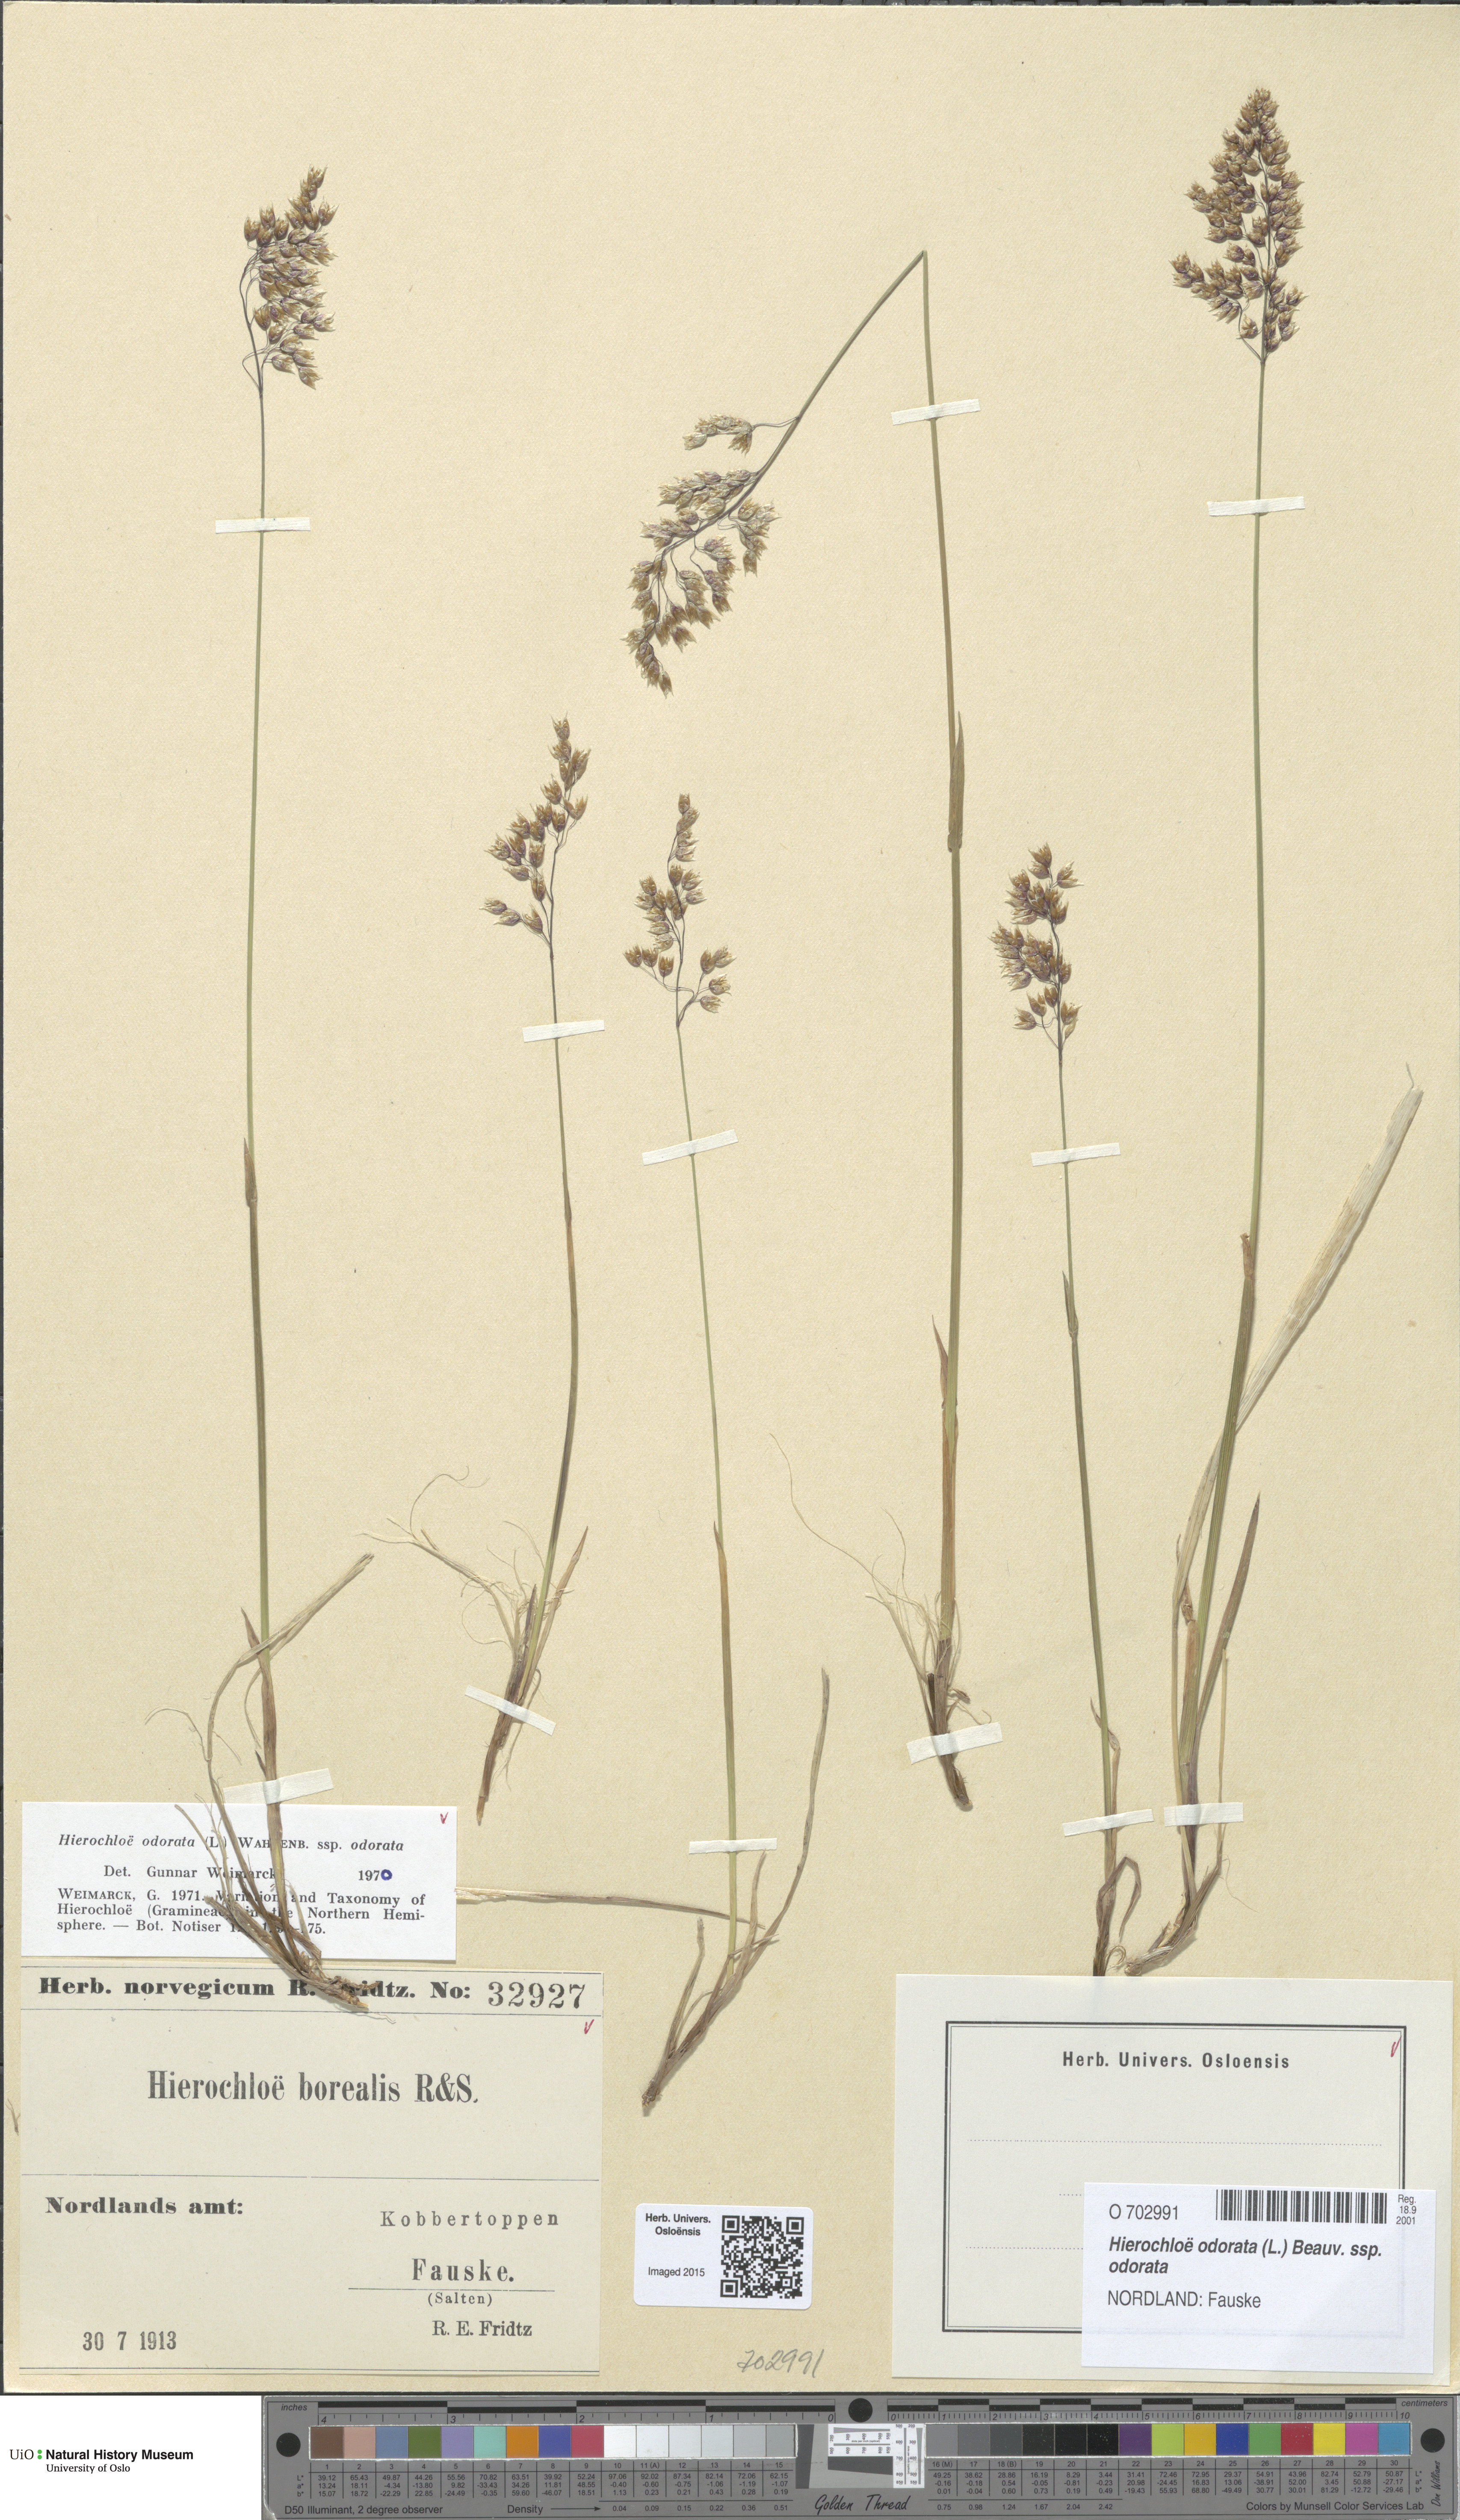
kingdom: Plantae
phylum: Tracheophyta
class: Liliopsida
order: Poales
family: Poaceae
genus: Anthoxanthum
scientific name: Anthoxanthum nitens
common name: Holy grass
